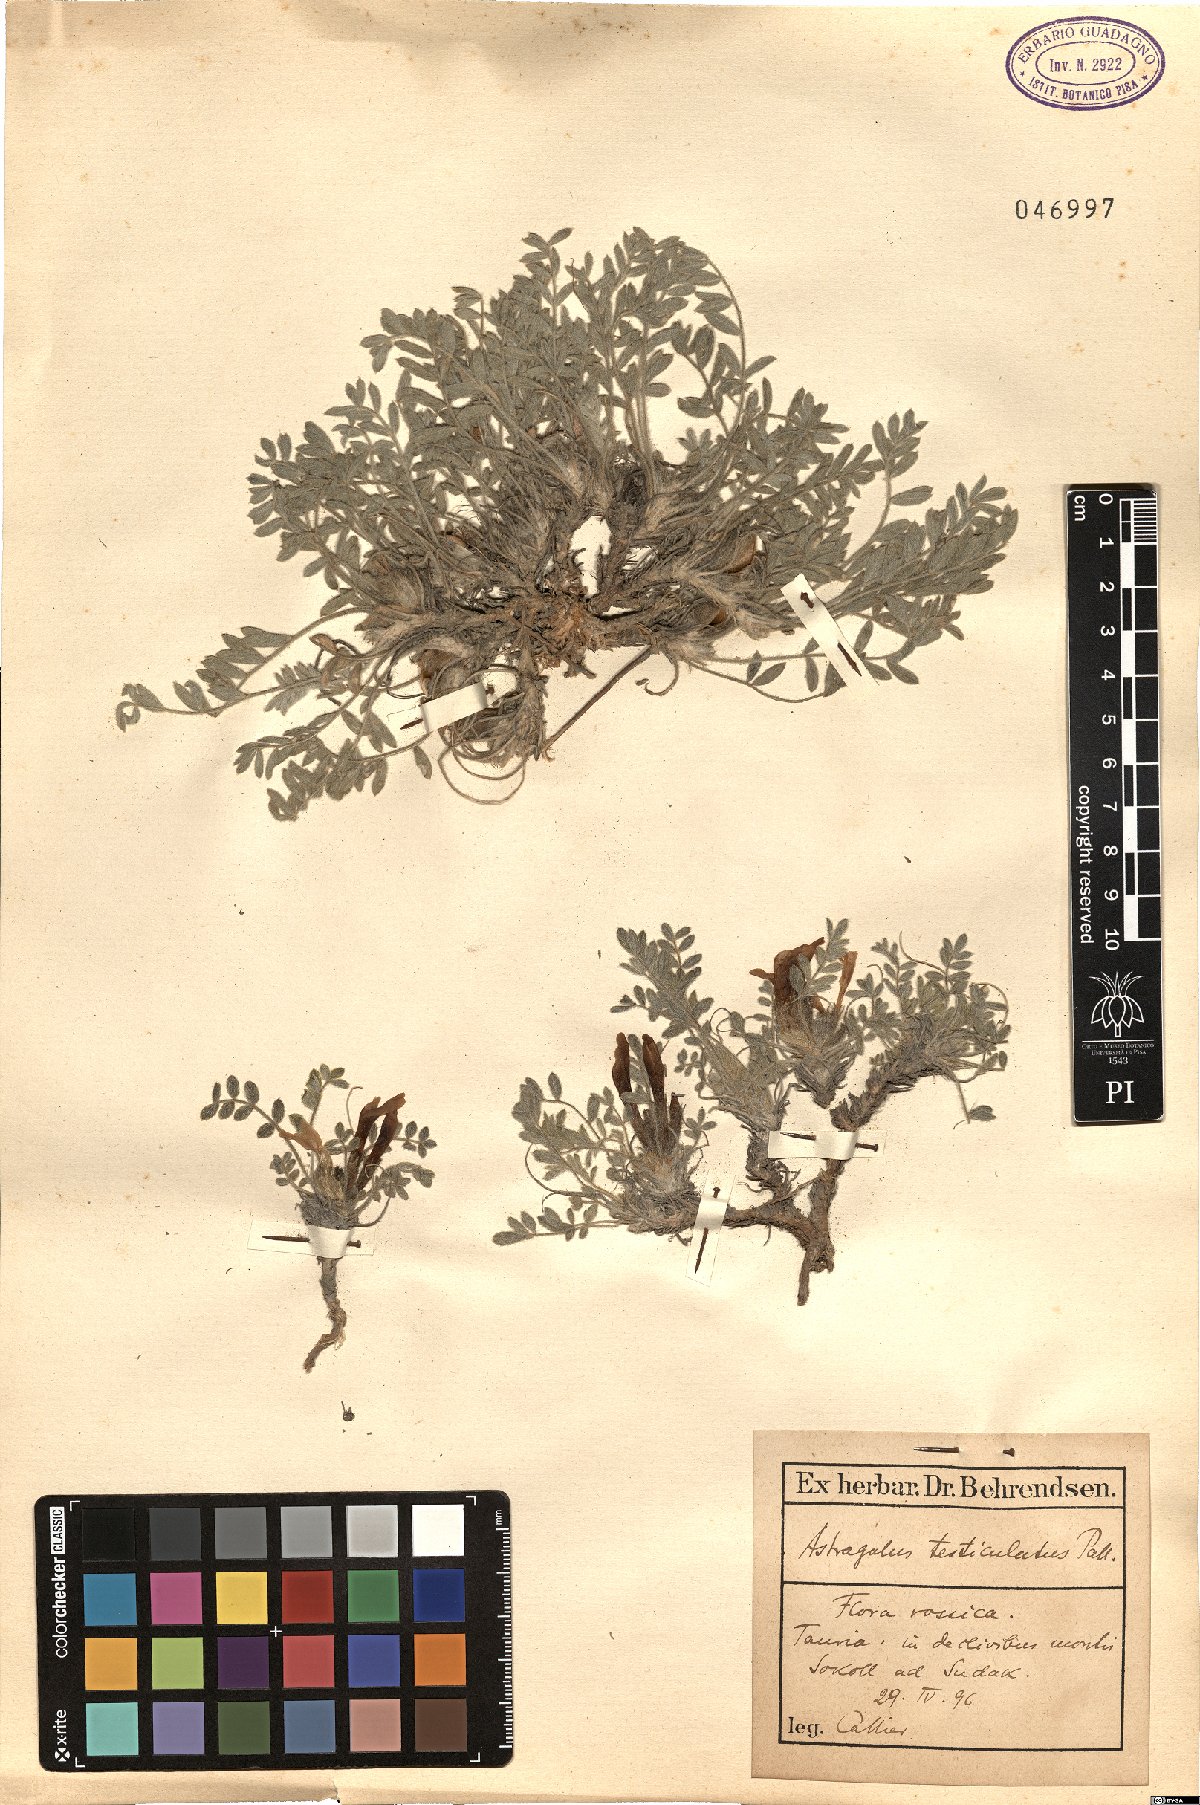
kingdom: Plantae
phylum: Tracheophyta
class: Magnoliopsida
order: Fabales
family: Fabaceae
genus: Astragalus
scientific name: Astragalus testiculatus
